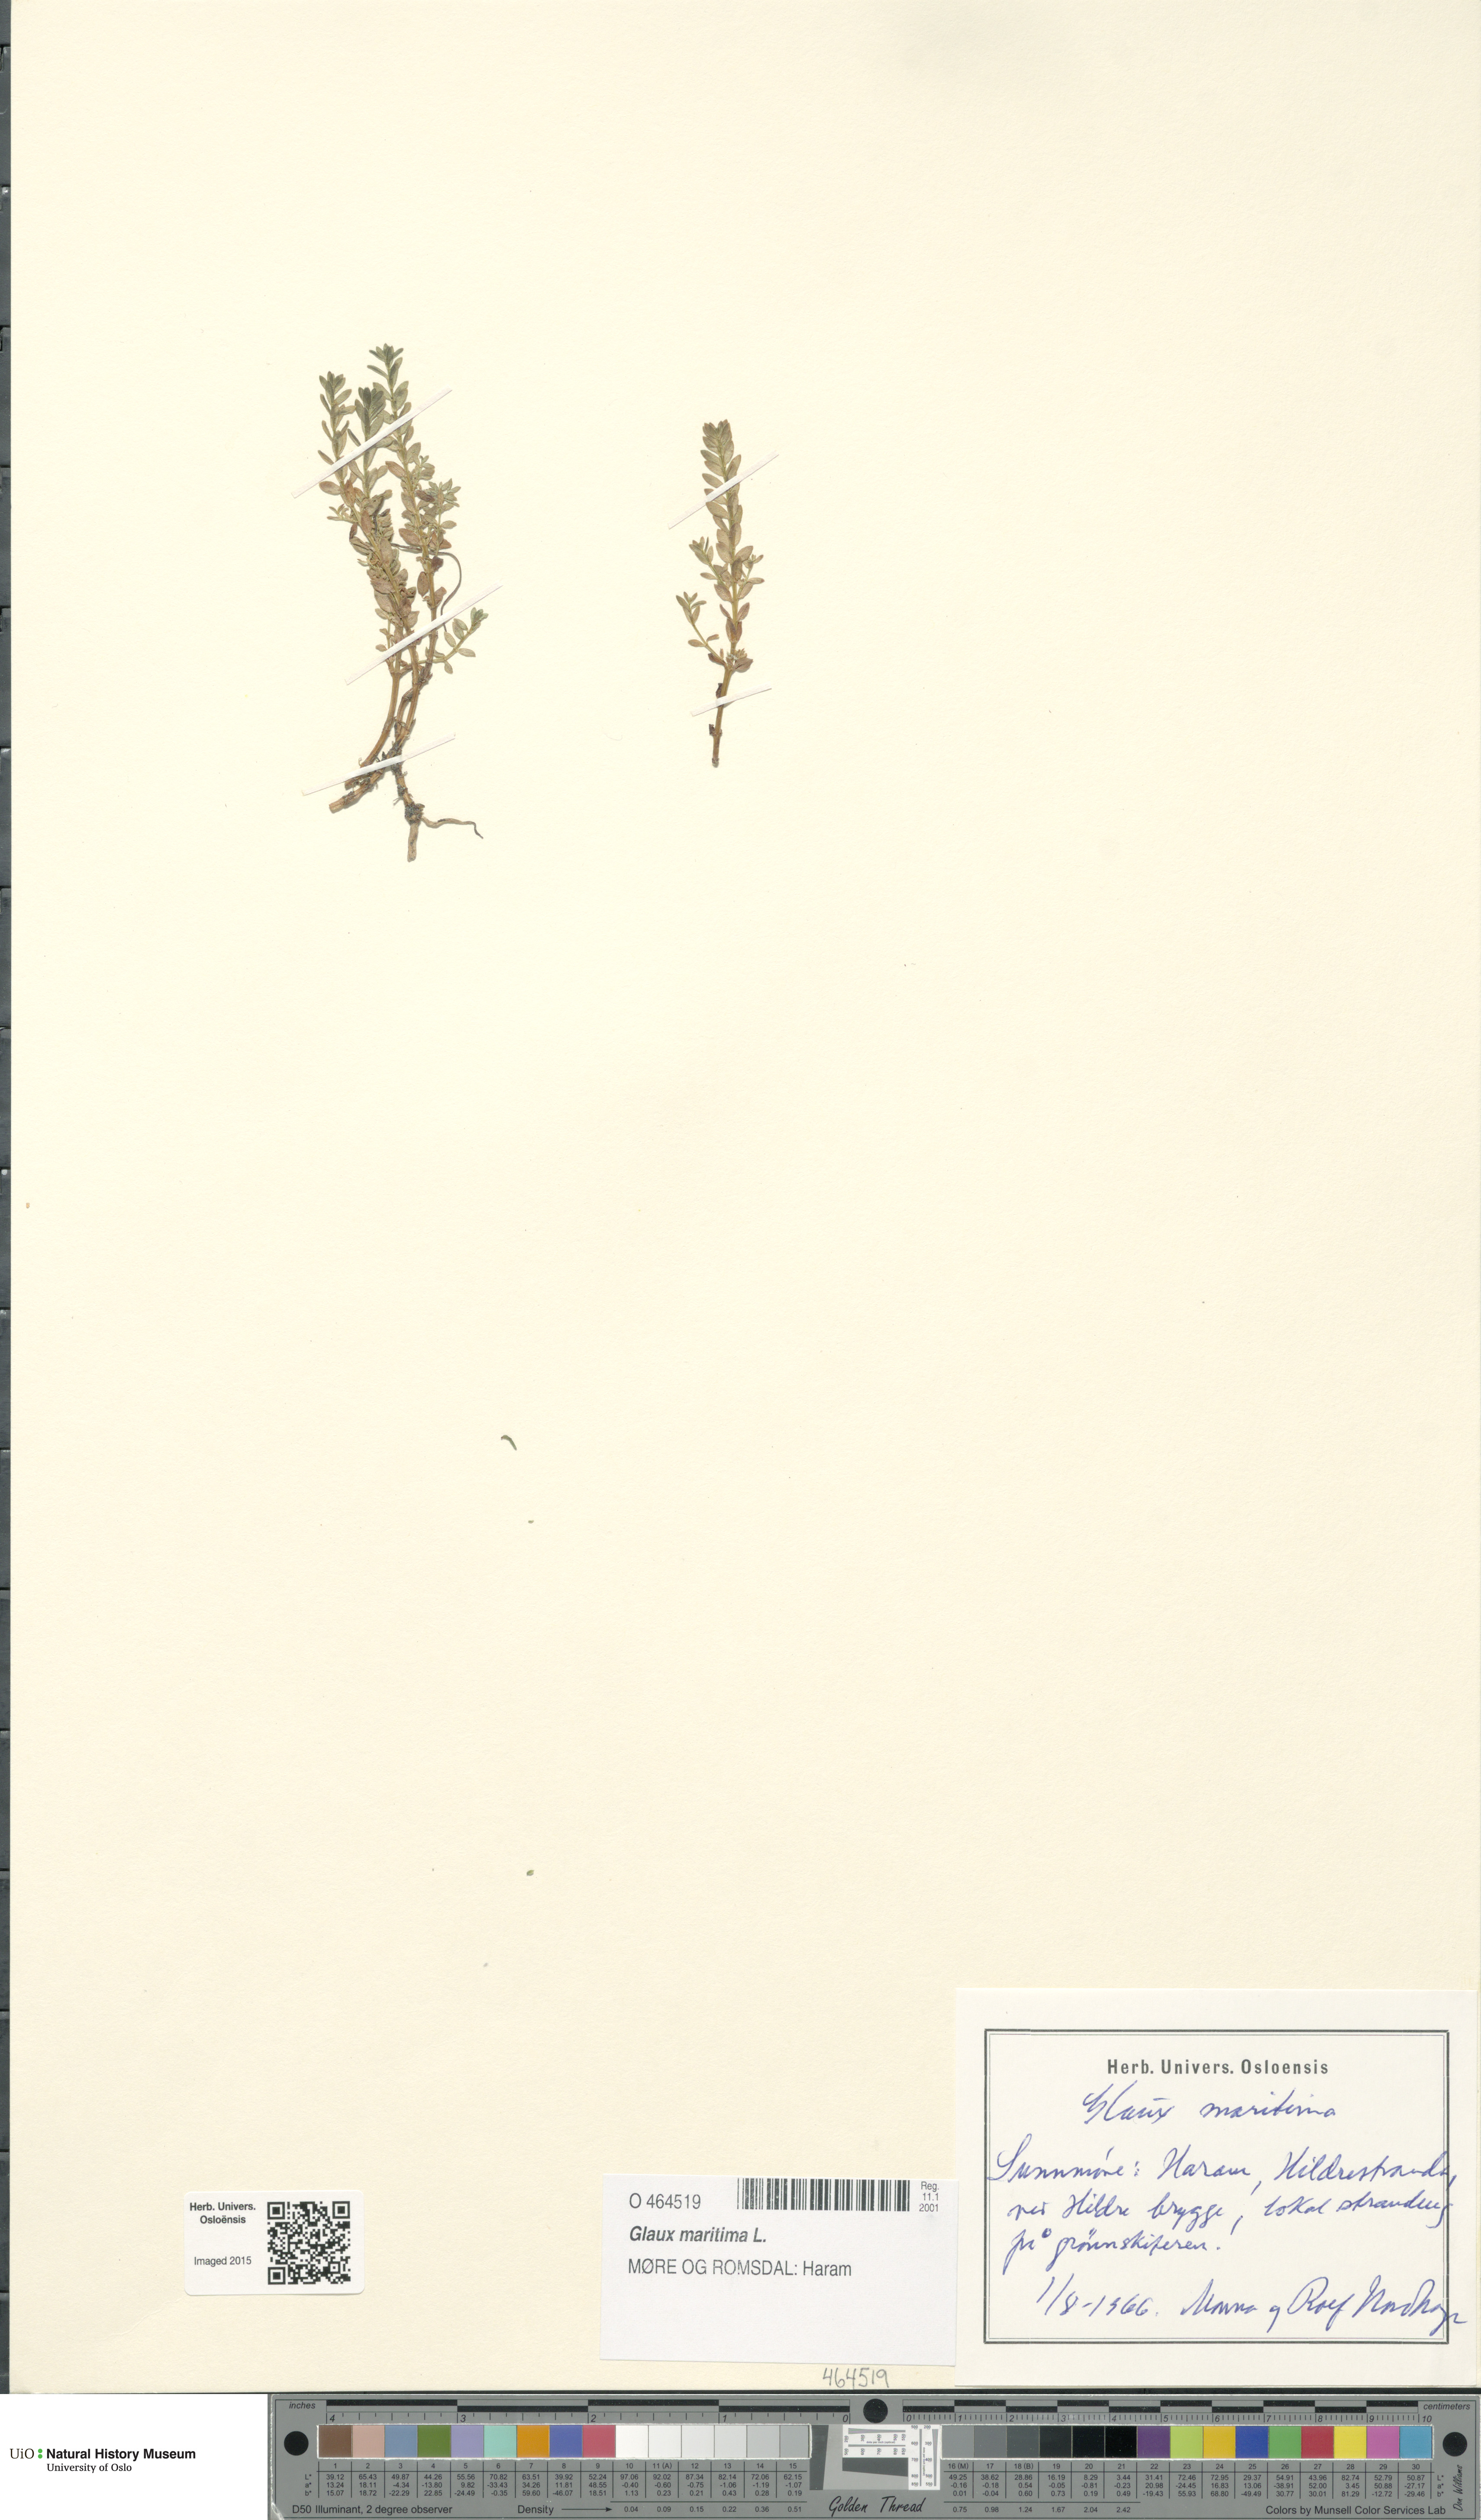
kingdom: Plantae
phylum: Tracheophyta
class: Magnoliopsida
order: Ericales
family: Primulaceae
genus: Lysimachia
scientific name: Lysimachia maritima
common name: Sea milkwort
